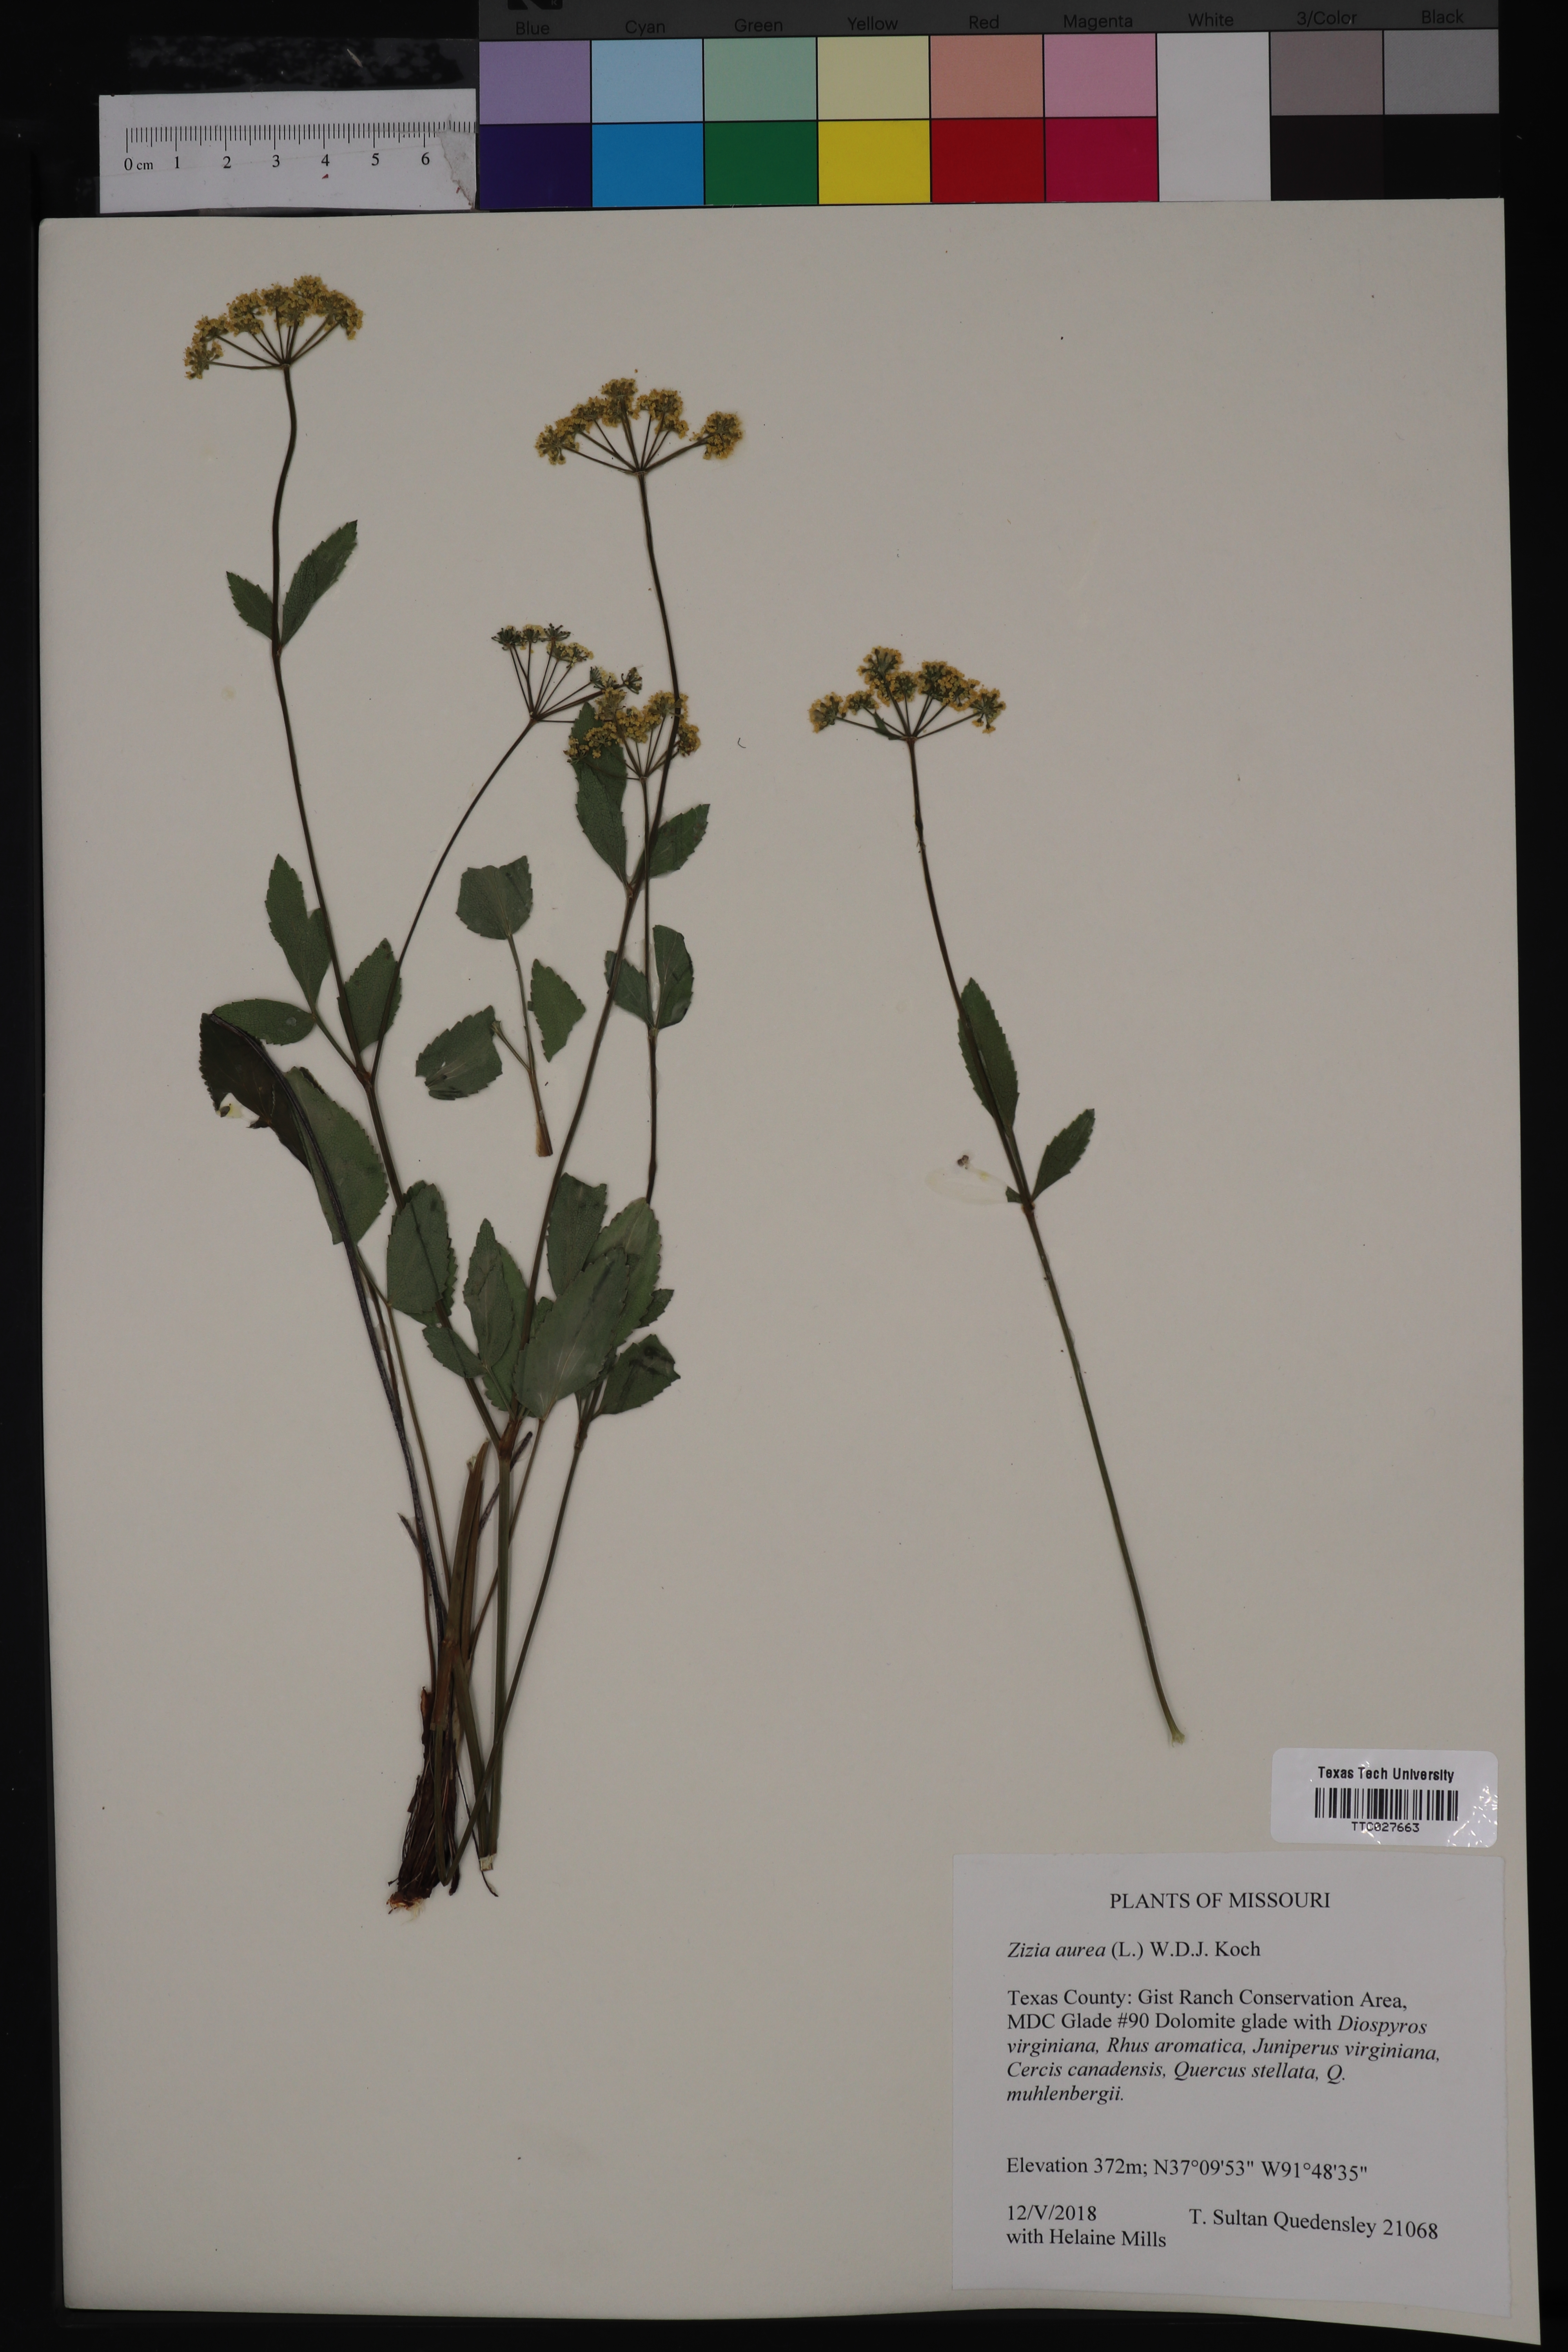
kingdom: Plantae
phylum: Tracheophyta
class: Magnoliopsida
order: Apiales
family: Apiaceae
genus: Zizia
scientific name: Zizia aurea
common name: Golden alexanders
